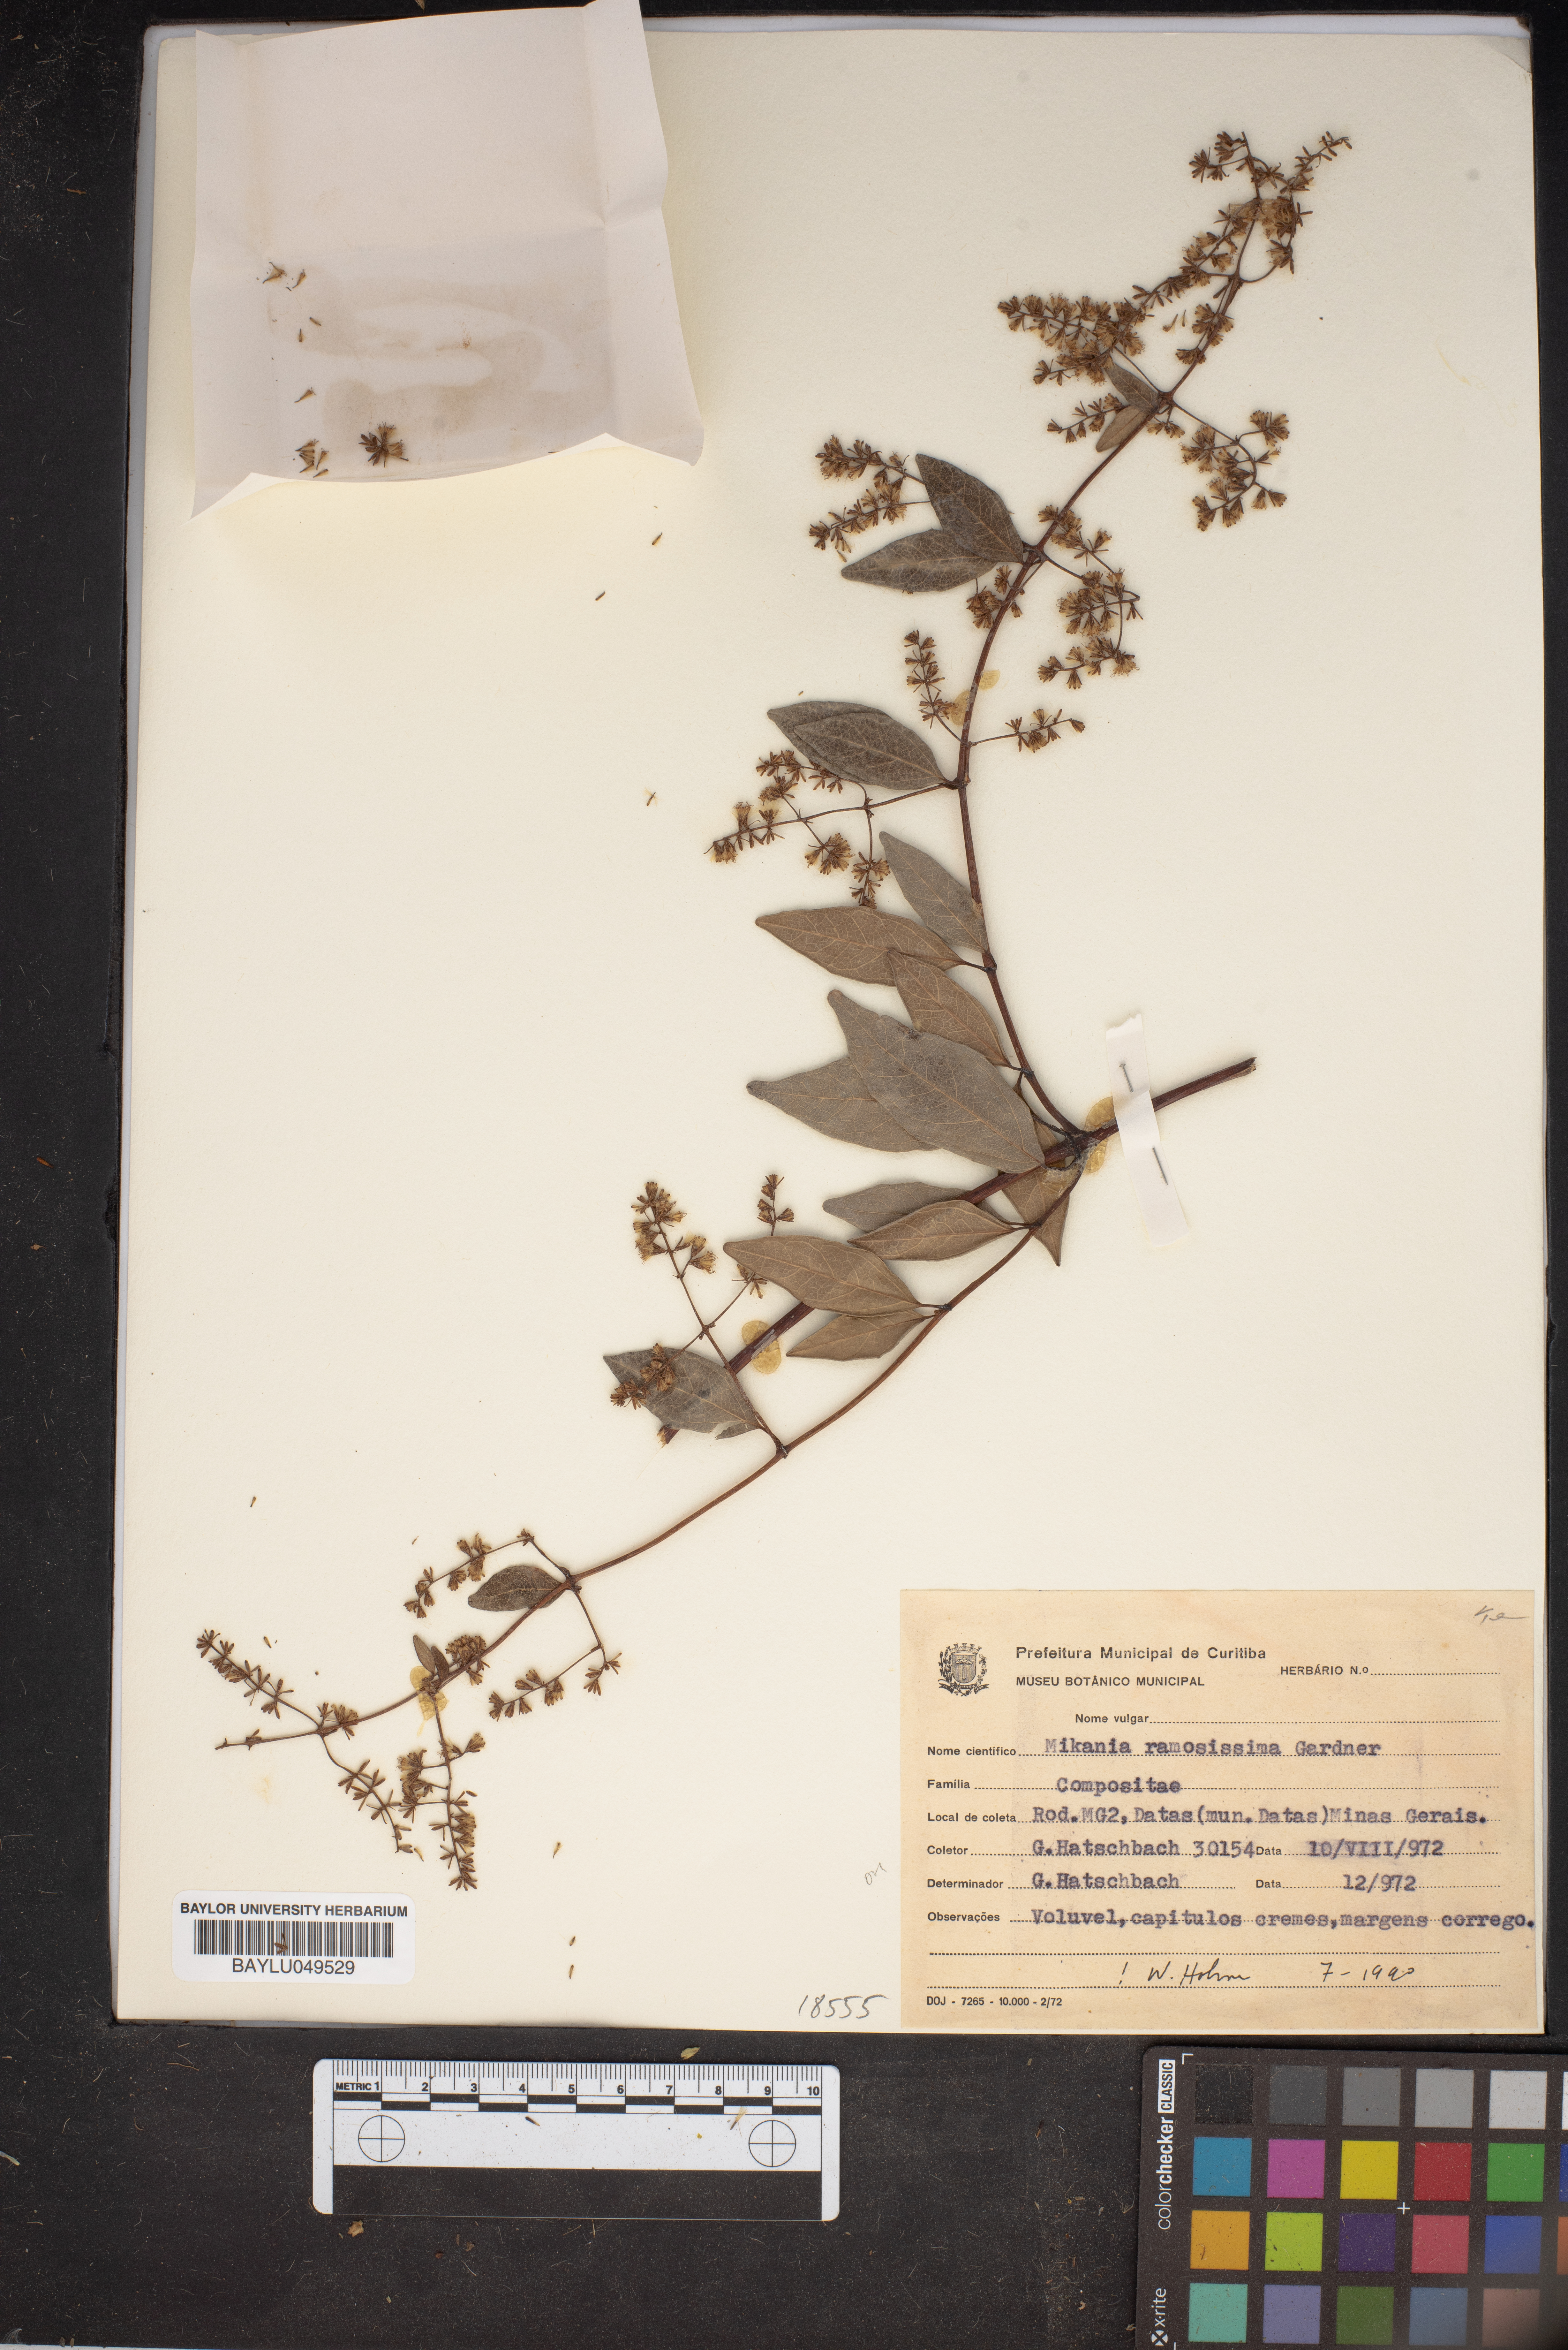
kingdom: Plantae
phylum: Tracheophyta
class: Magnoliopsida
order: Asterales
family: Asteraceae
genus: Mikania
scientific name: Mikania ramosissima
